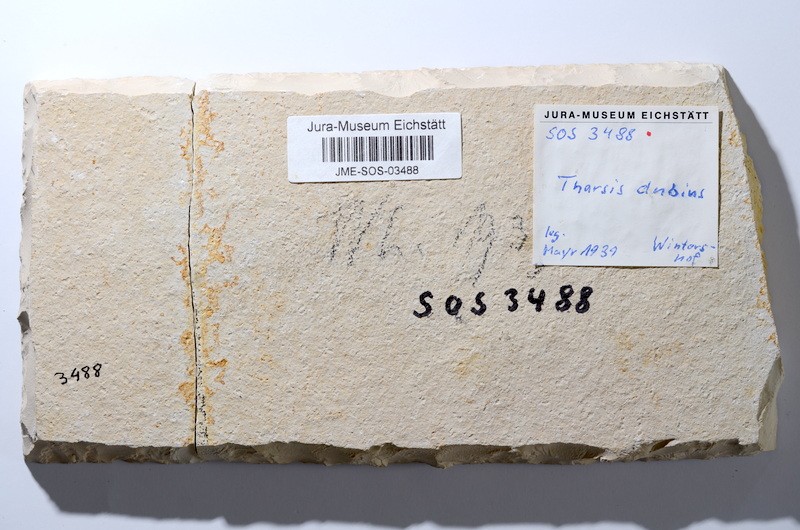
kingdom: Animalia
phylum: Chordata
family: Ascalaboidae
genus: Tharsis
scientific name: Tharsis dubius
